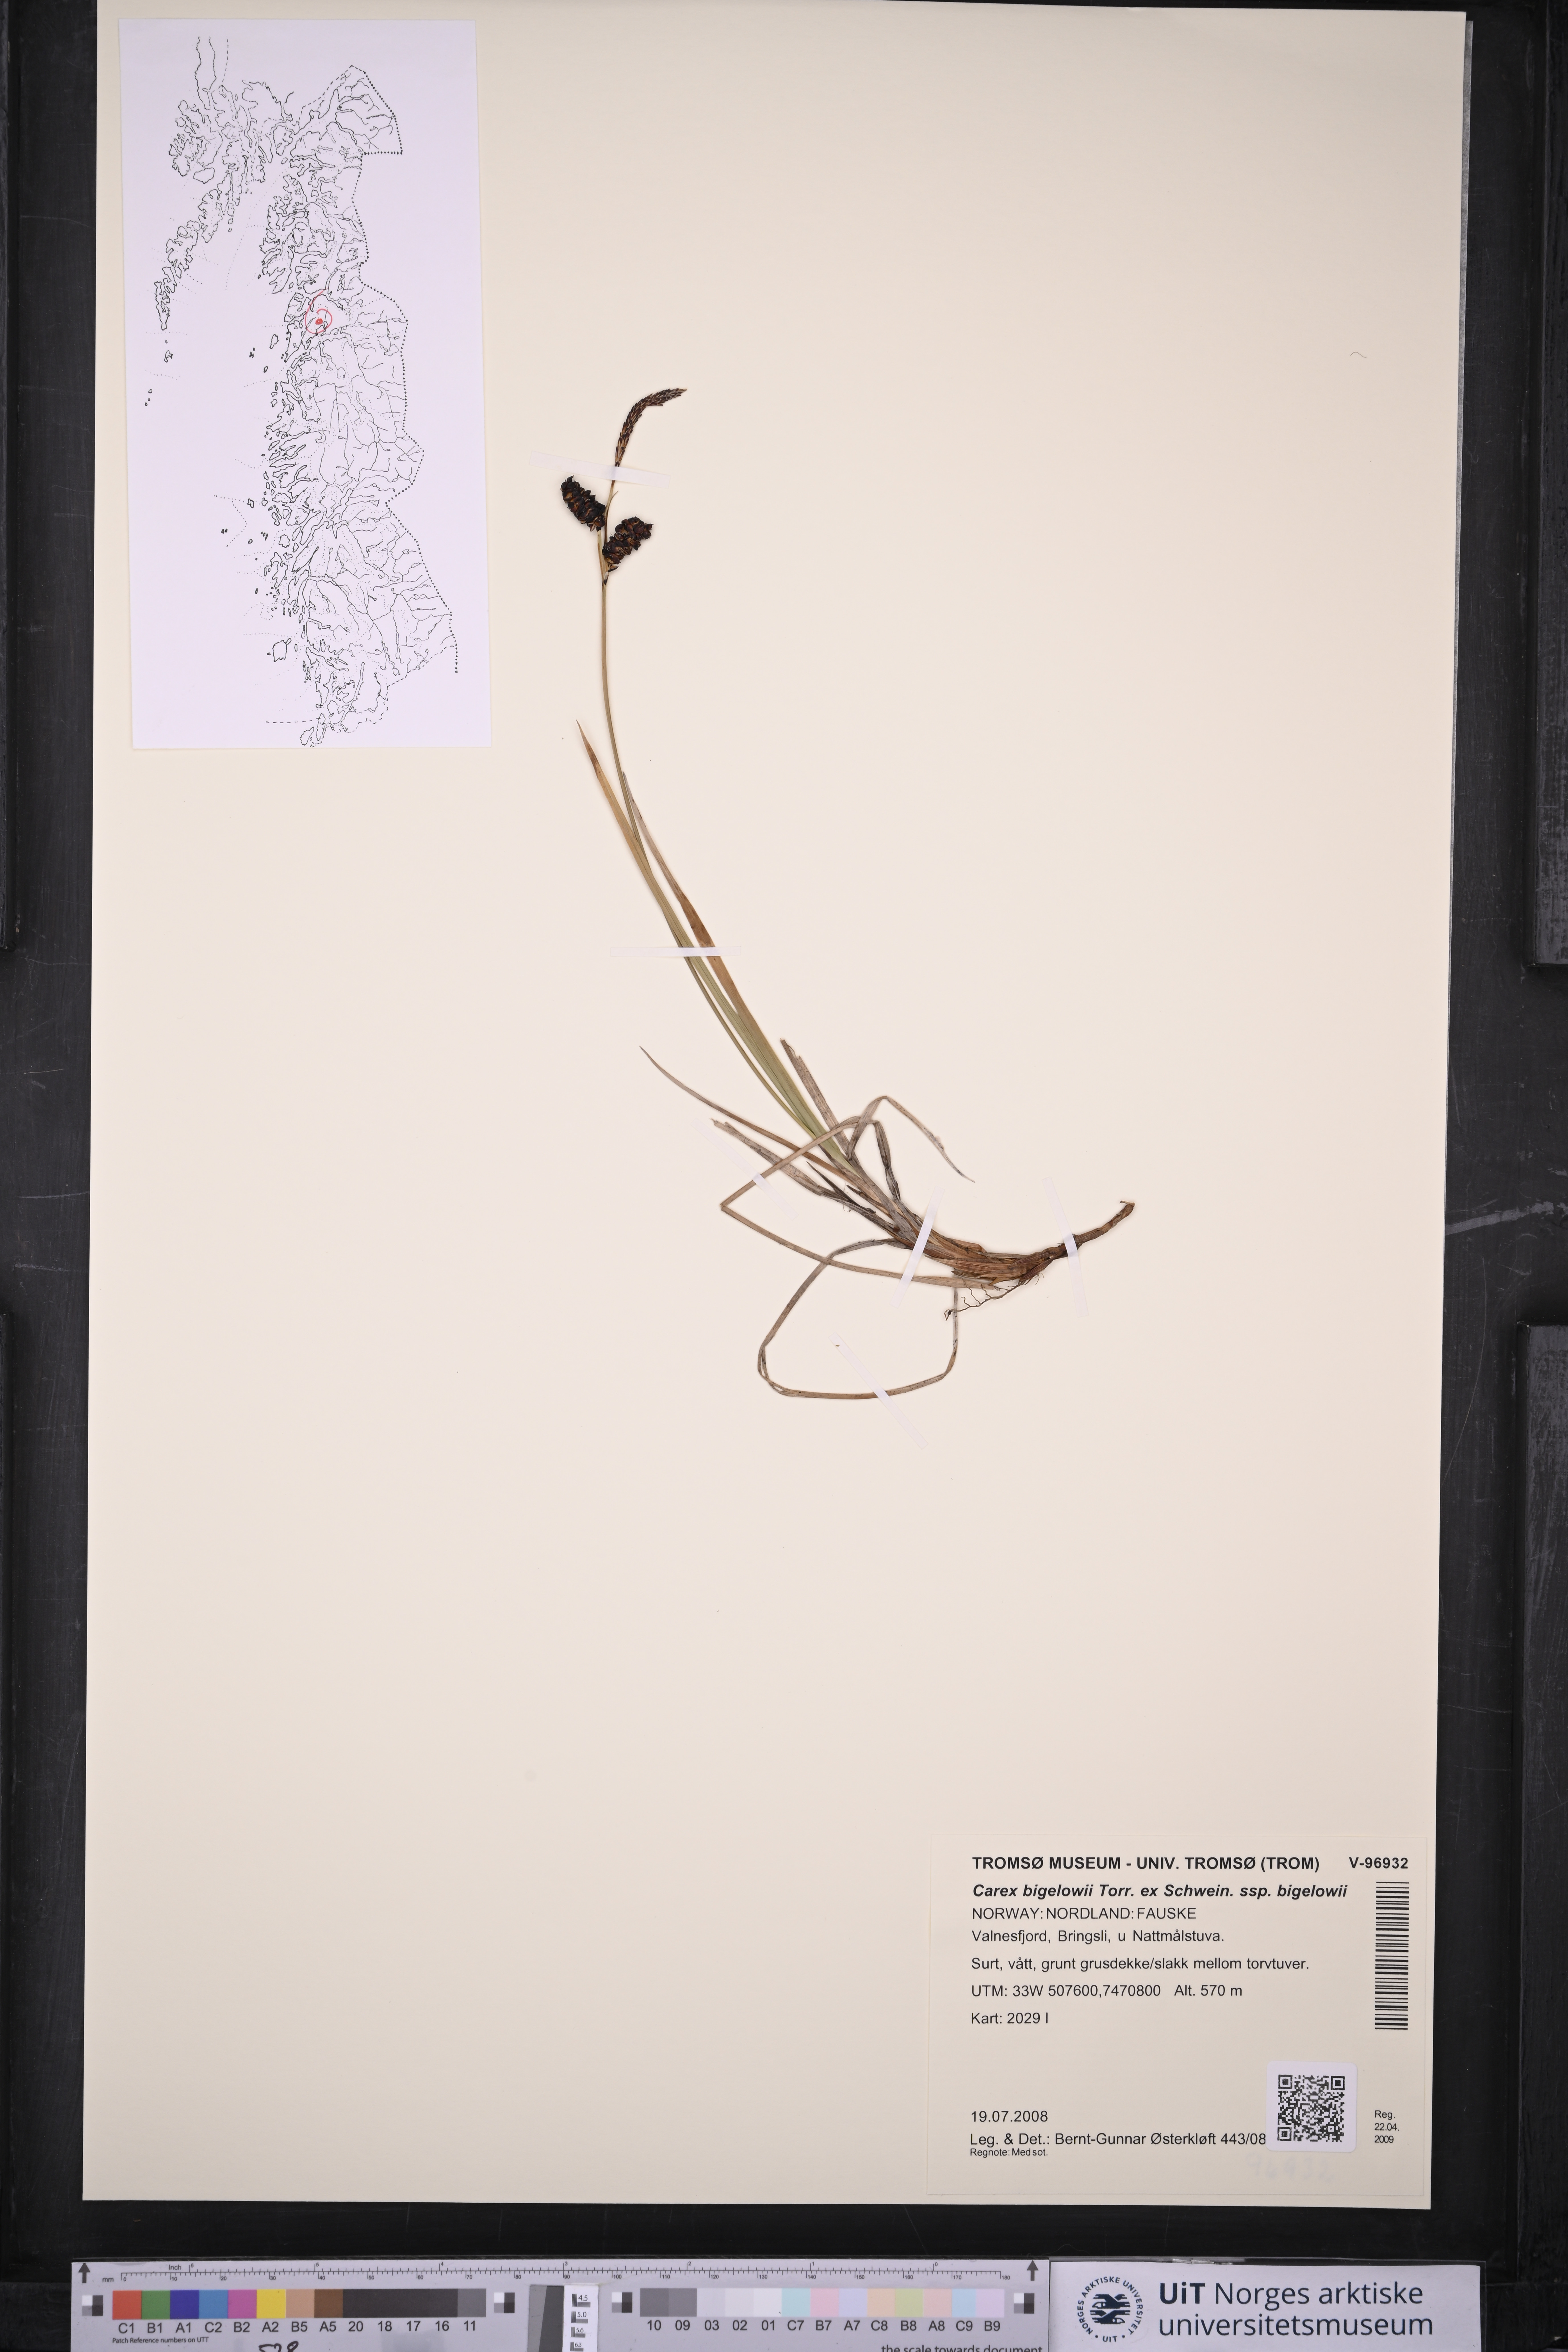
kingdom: Plantae
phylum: Tracheophyta
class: Liliopsida
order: Poales
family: Cyperaceae
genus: Carex
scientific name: Carex bigelowii
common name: Stiff sedge
